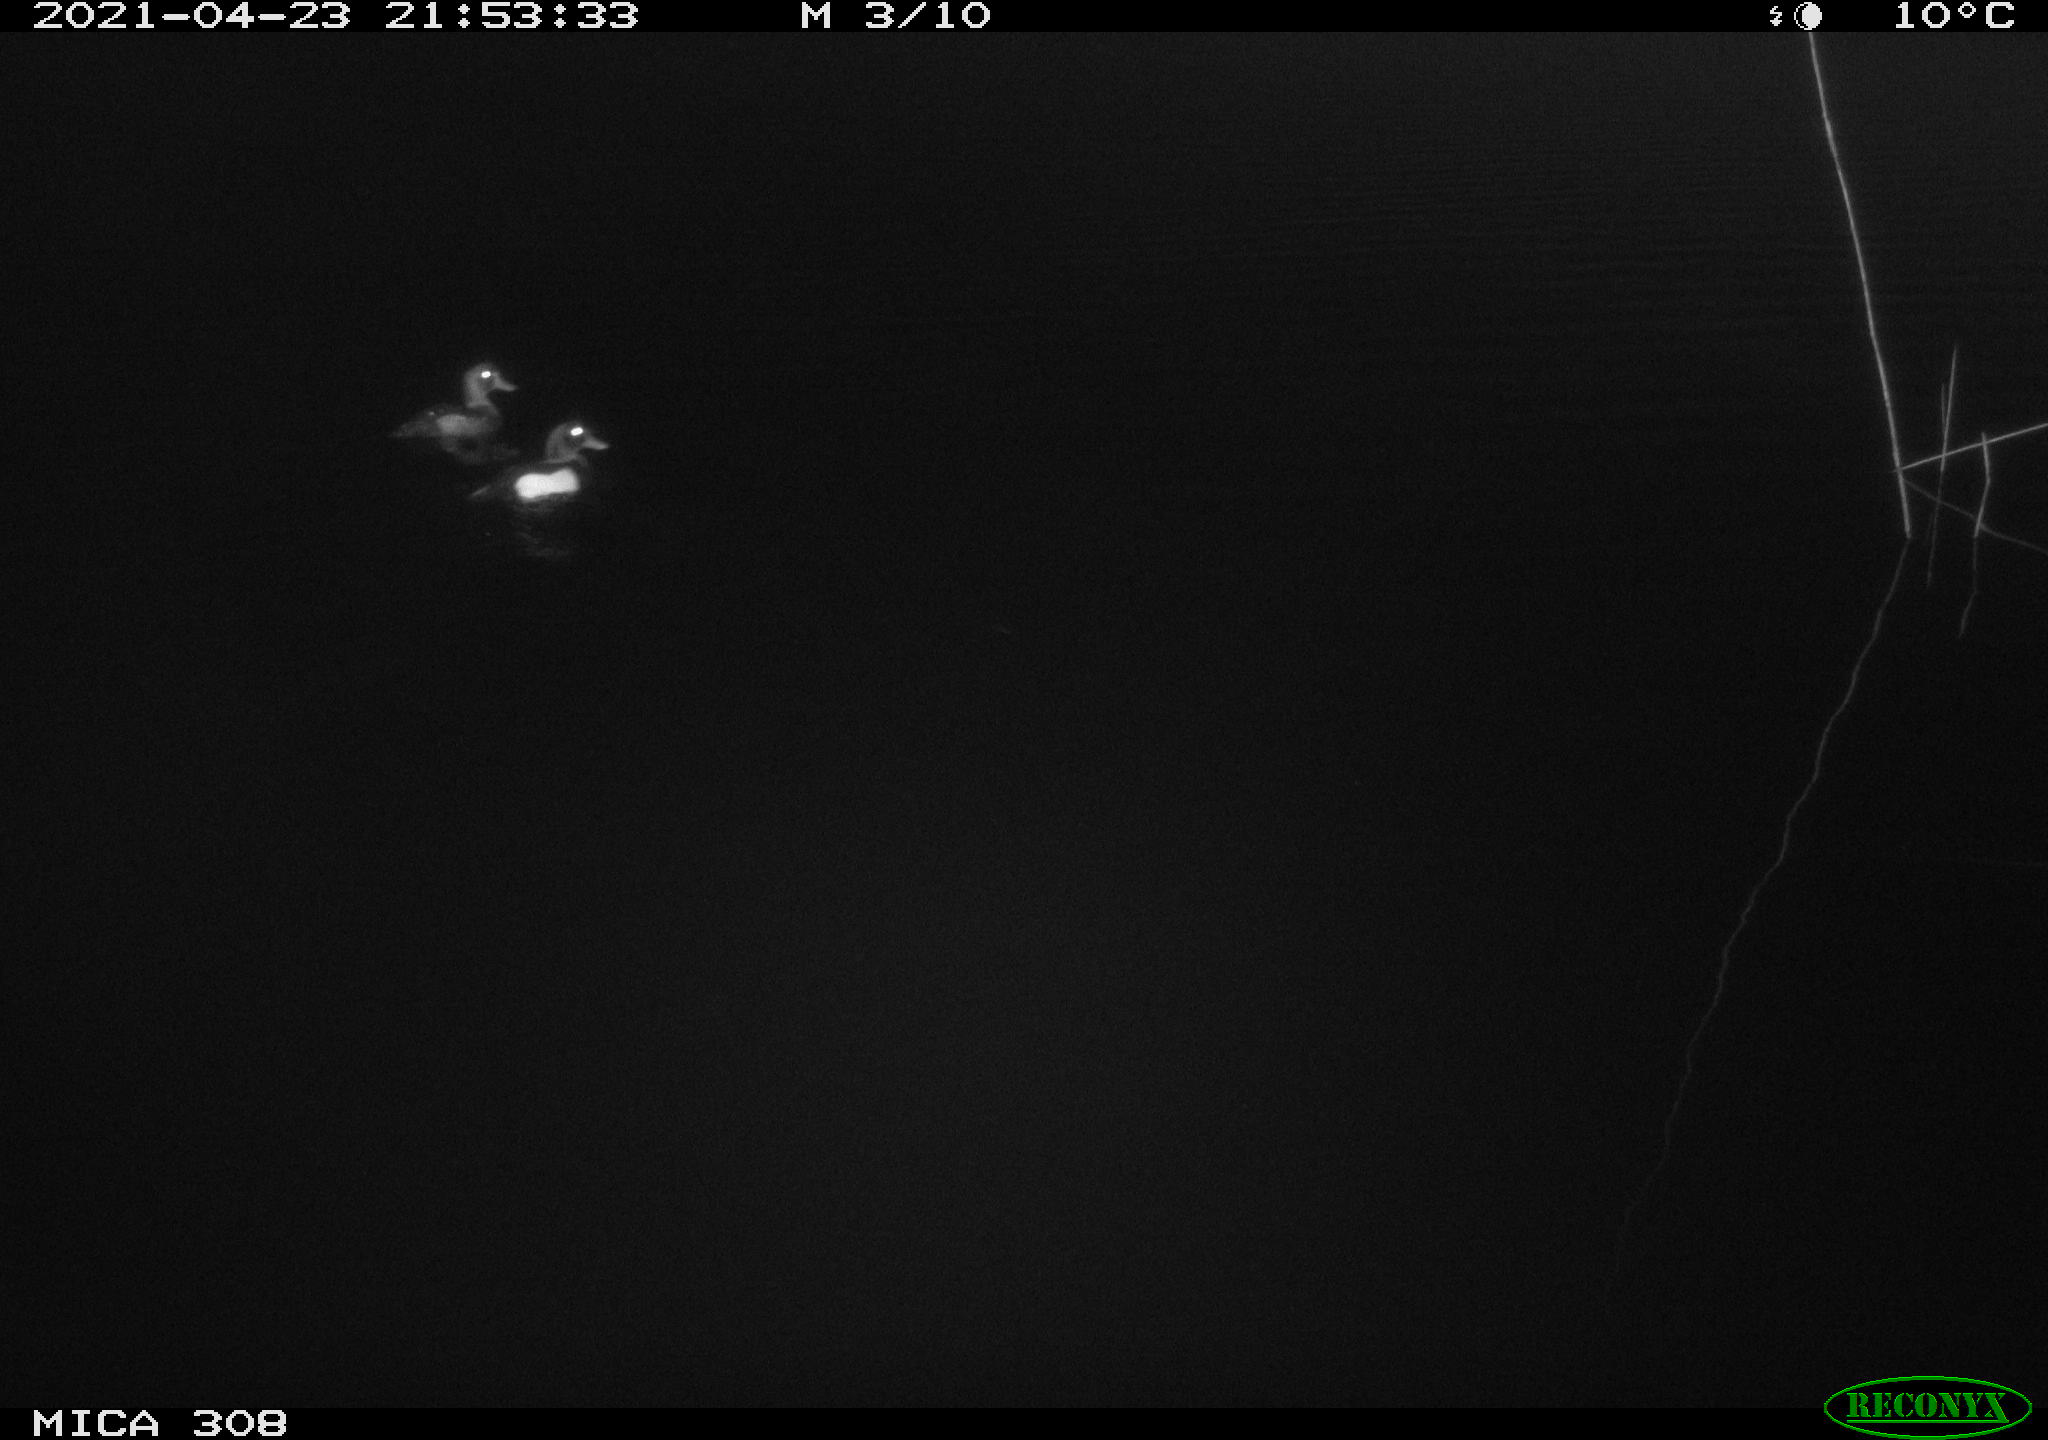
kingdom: Animalia
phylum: Chordata
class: Aves
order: Anseriformes
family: Anatidae
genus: Aythya
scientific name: Aythya fuligula
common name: Tufted duck
